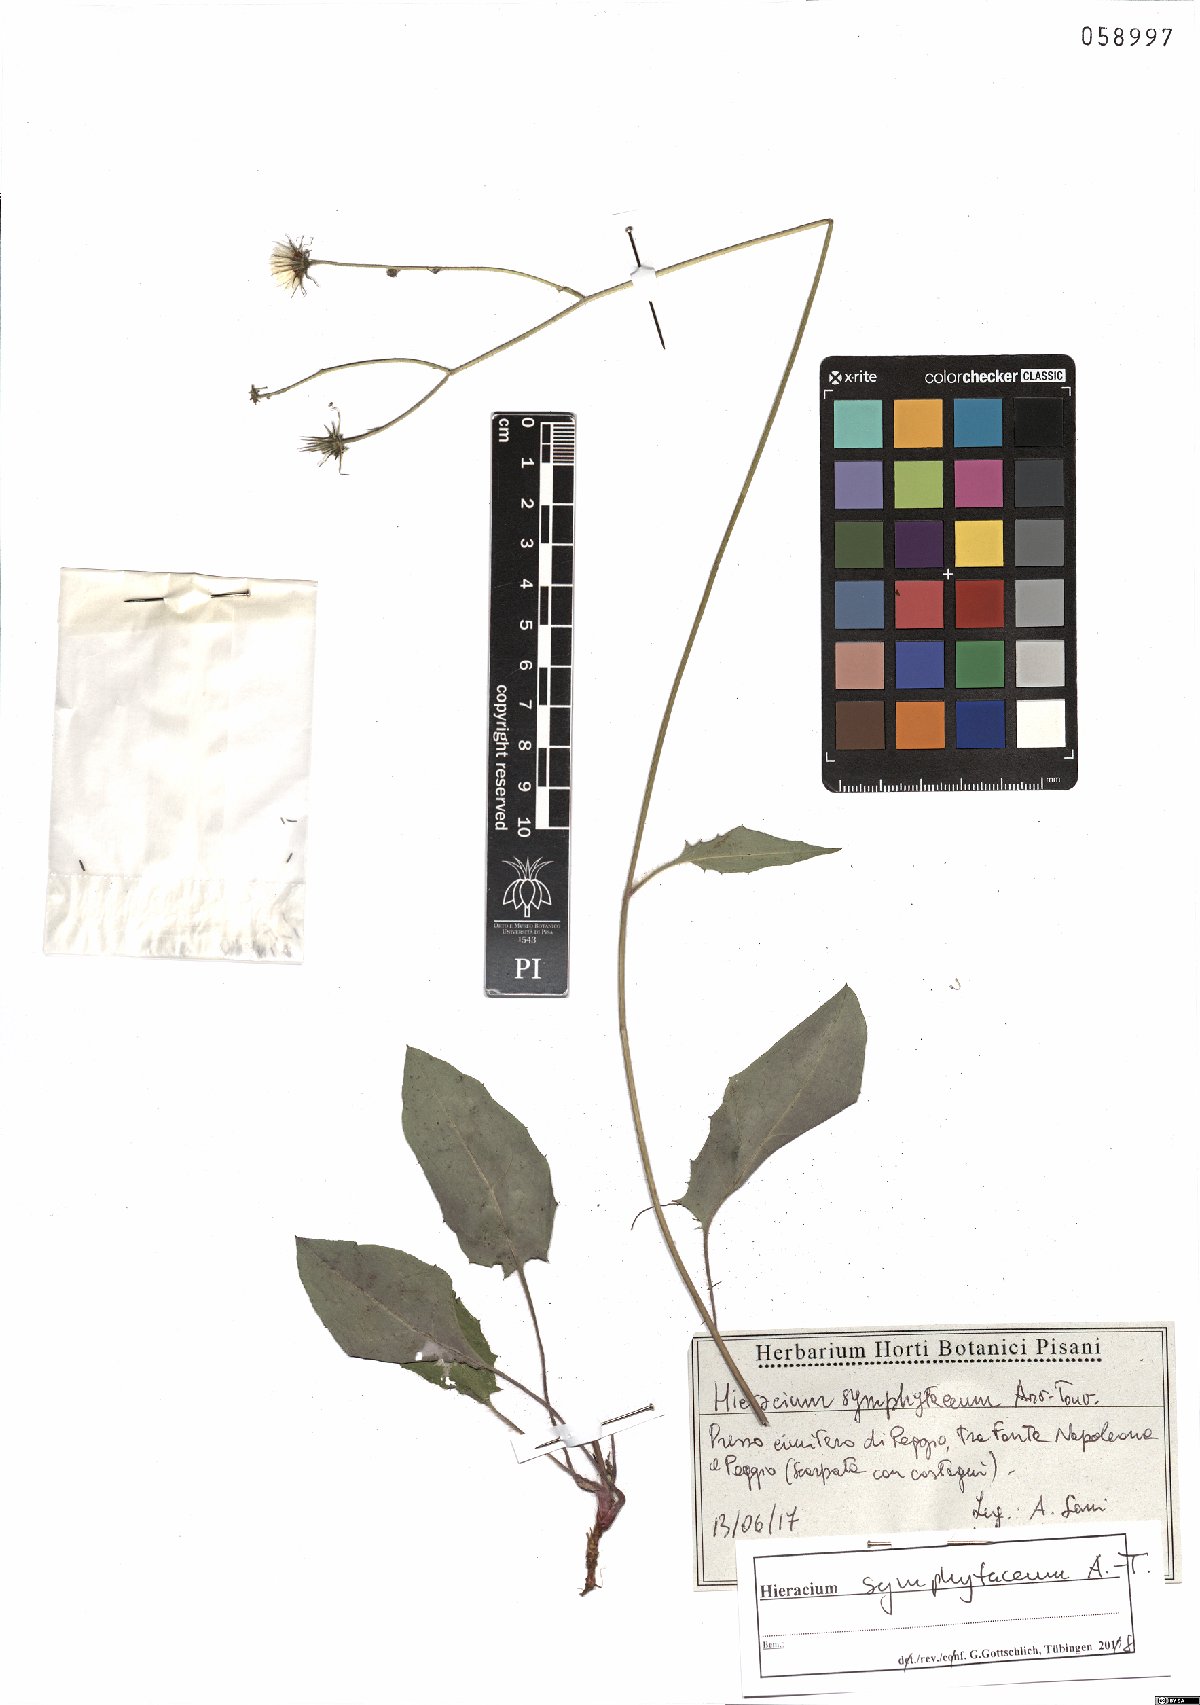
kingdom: Plantae
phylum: Tracheophyta
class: Magnoliopsida
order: Asterales
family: Asteraceae
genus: Hieracium
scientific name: Hieracium symphytaceum
